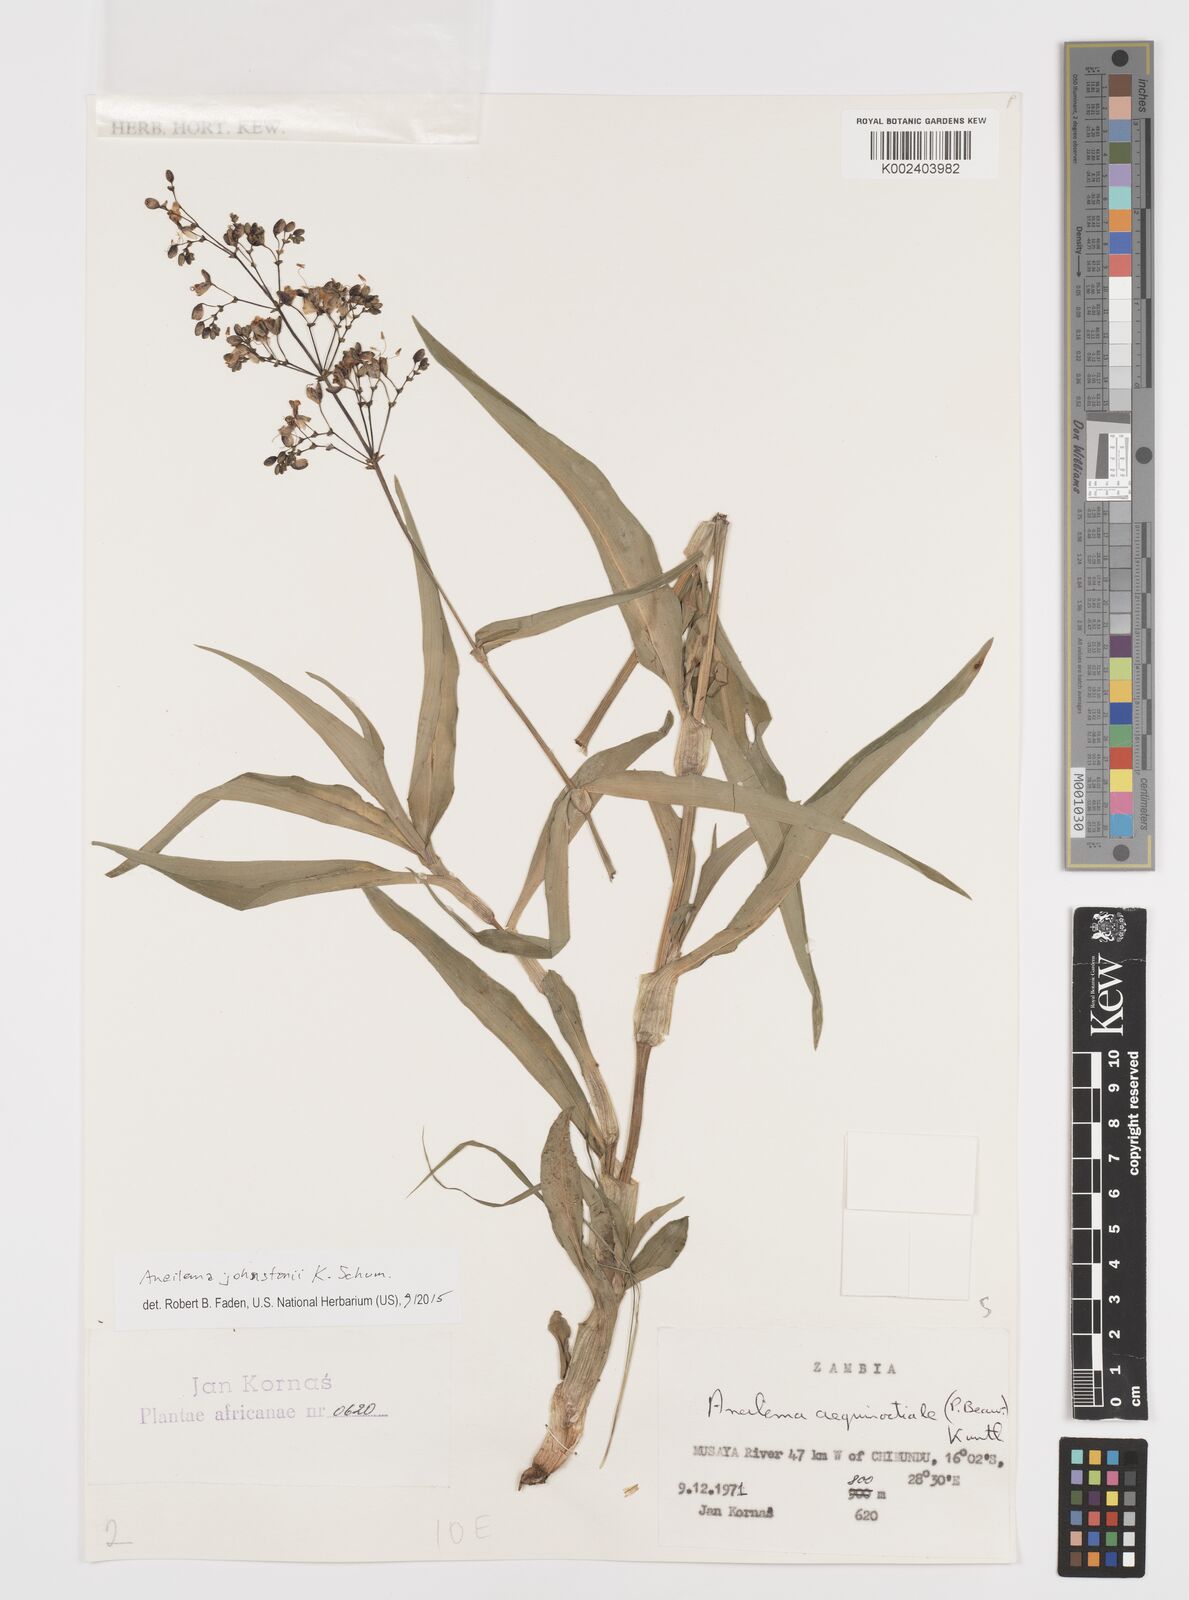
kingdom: Plantae
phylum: Tracheophyta
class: Liliopsida
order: Commelinales
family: Commelinaceae
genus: Aneilema
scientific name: Aneilema johnstonii
